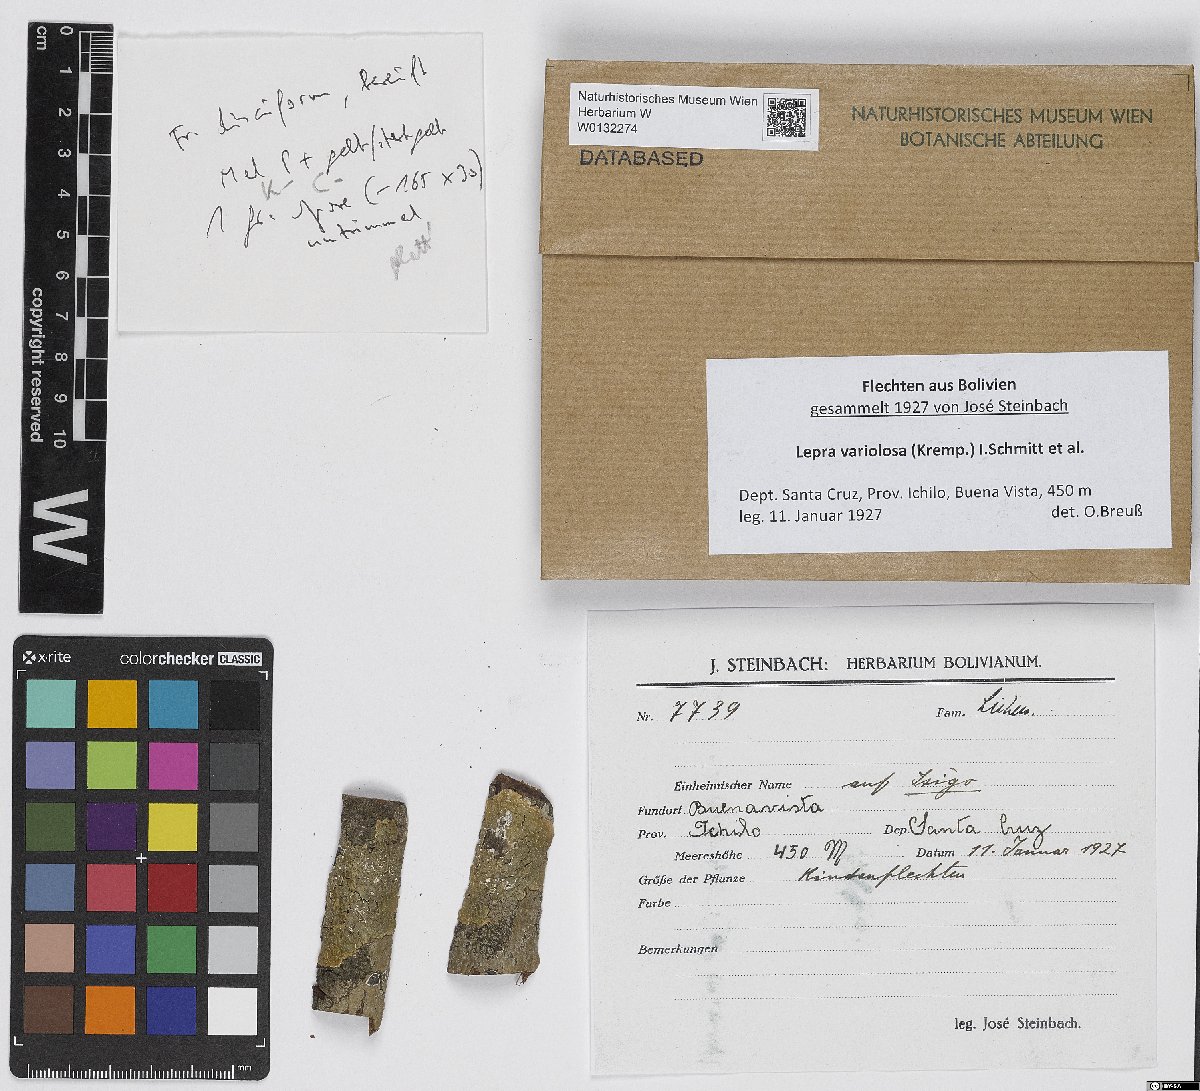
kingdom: Fungi
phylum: Ascomycota
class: Lecanoromycetes
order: Pertusariales
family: Pertusariaceae
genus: Lepra
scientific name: Lepra variolosa
